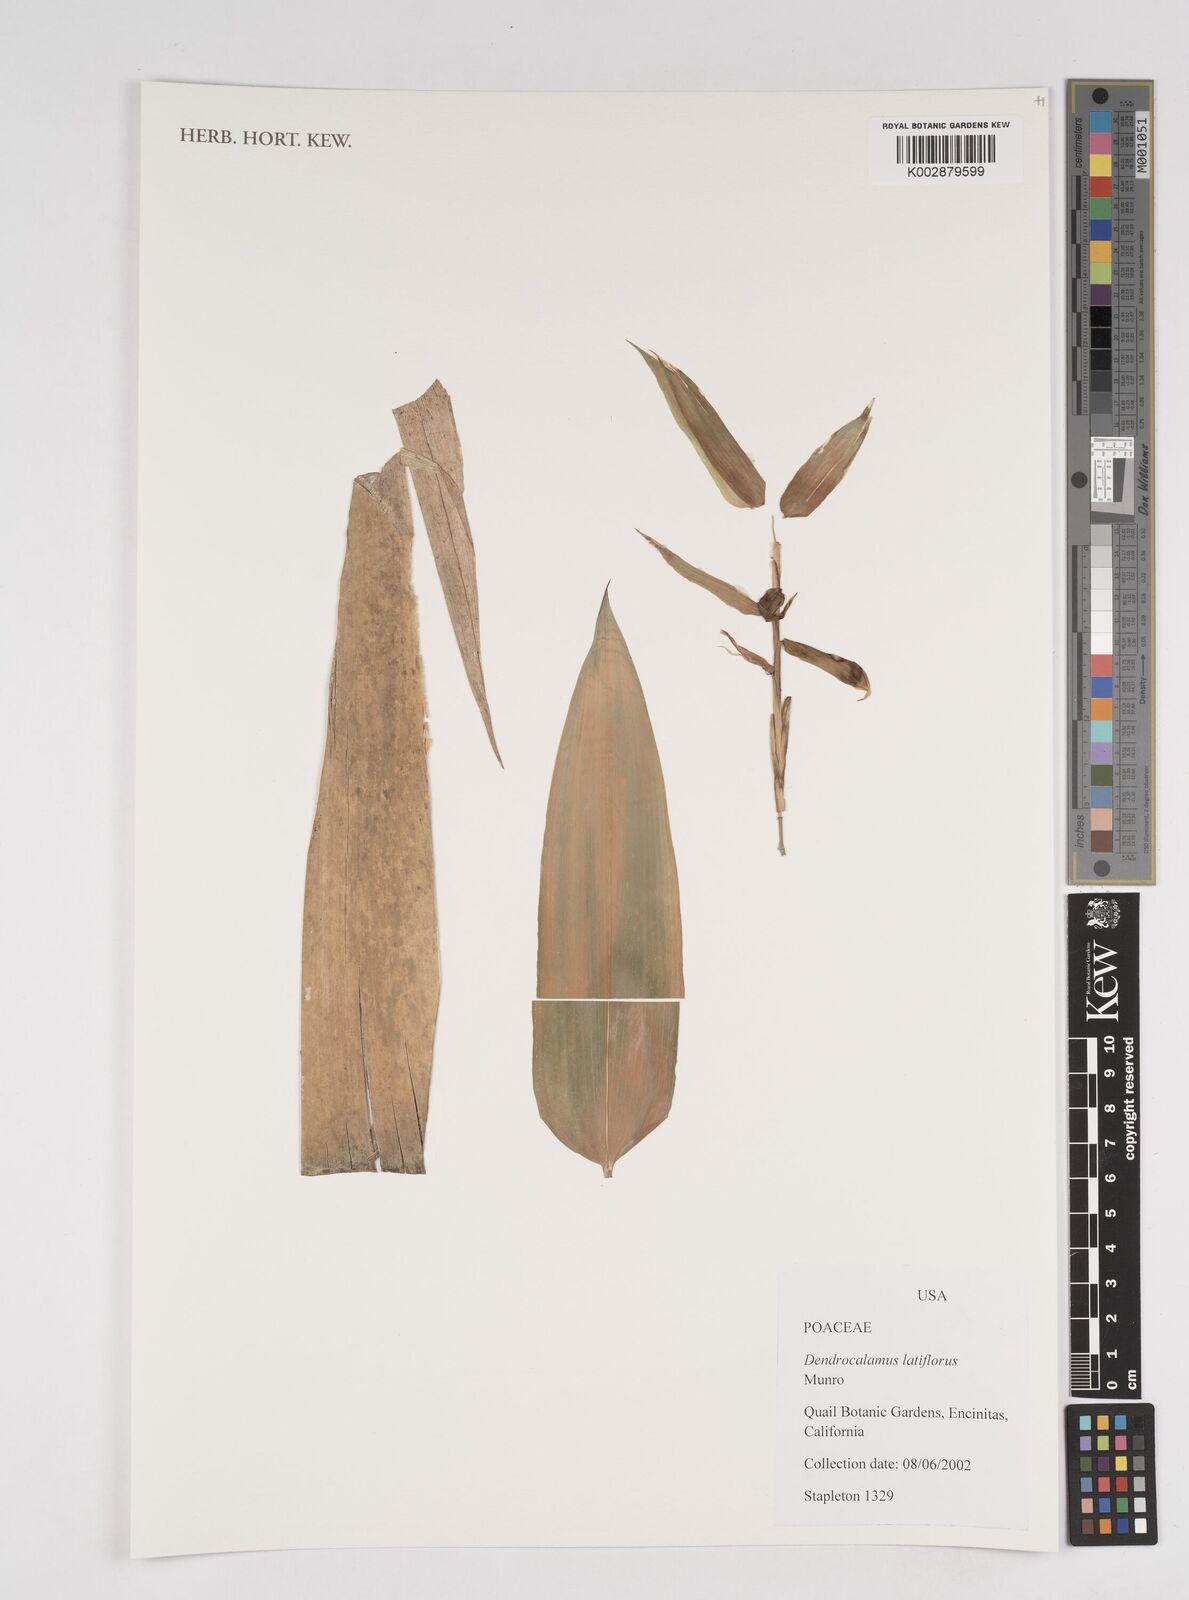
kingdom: Plantae
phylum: Tracheophyta
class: Liliopsida
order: Poales
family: Poaceae
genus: Dendrocalamus
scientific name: Dendrocalamus latiflorus
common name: Giant bamboo
